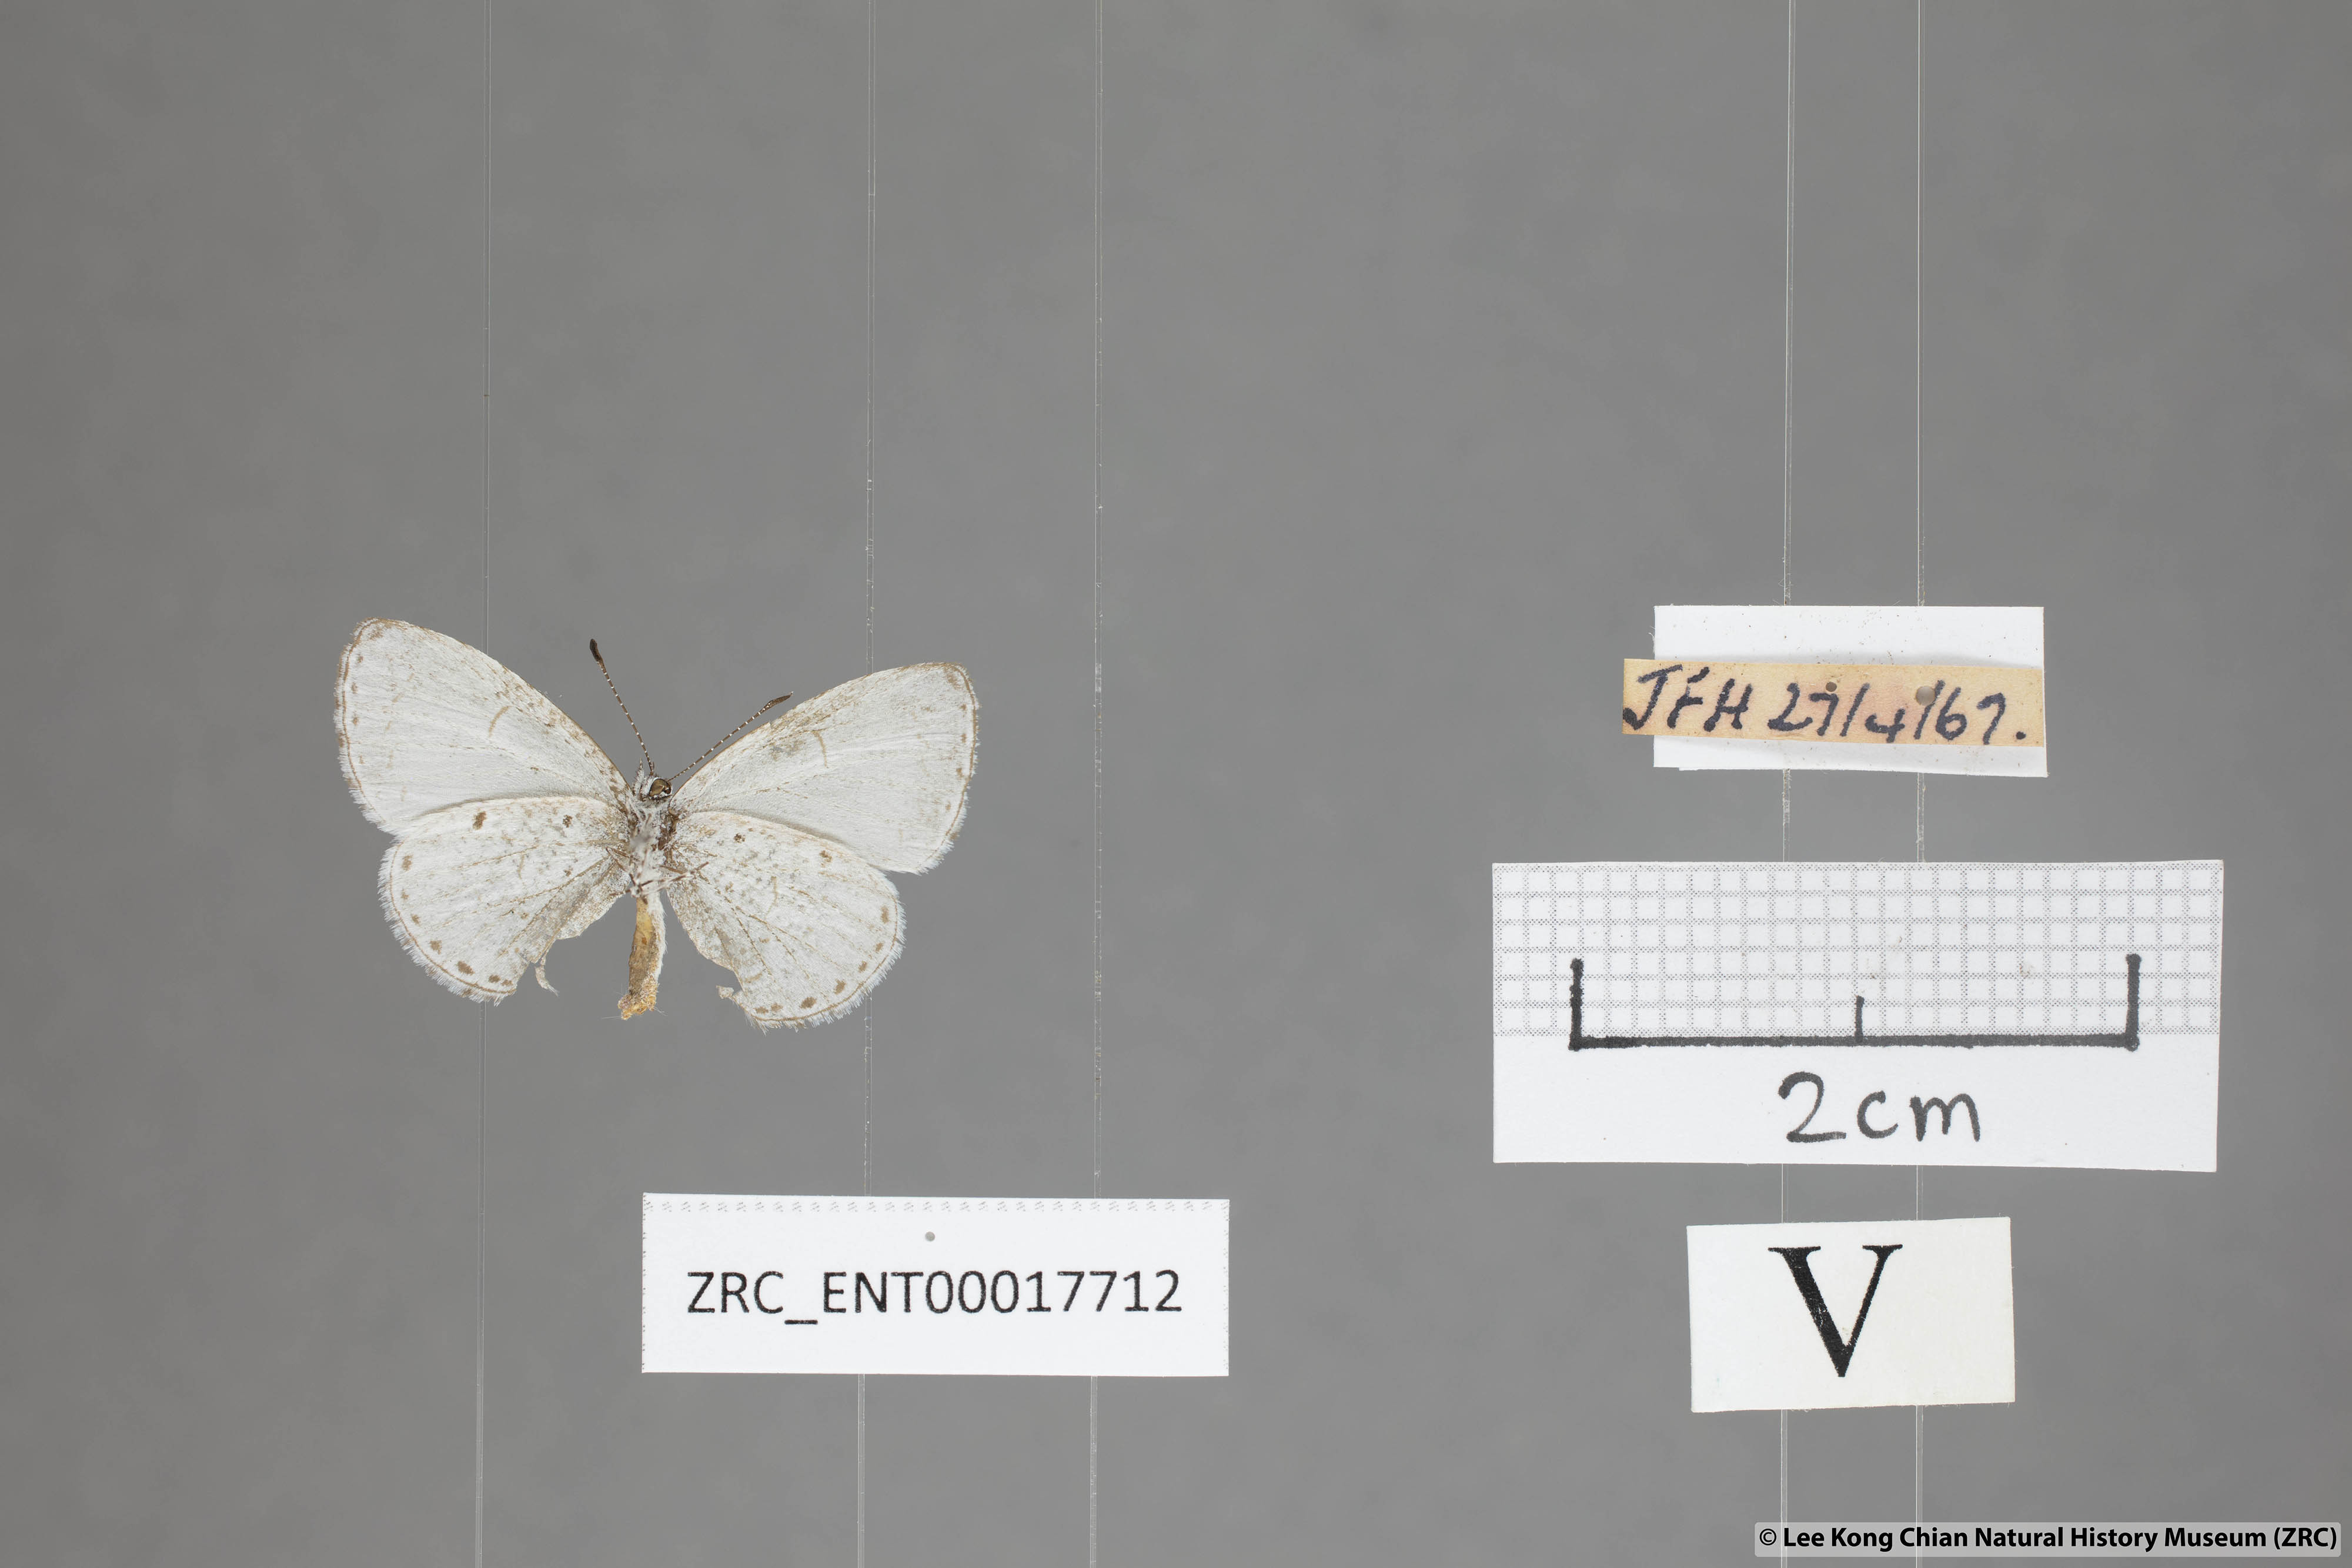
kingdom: Animalia
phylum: Arthropoda
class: Insecta
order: Lepidoptera
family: Lycaenidae
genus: Udara
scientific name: Udara
